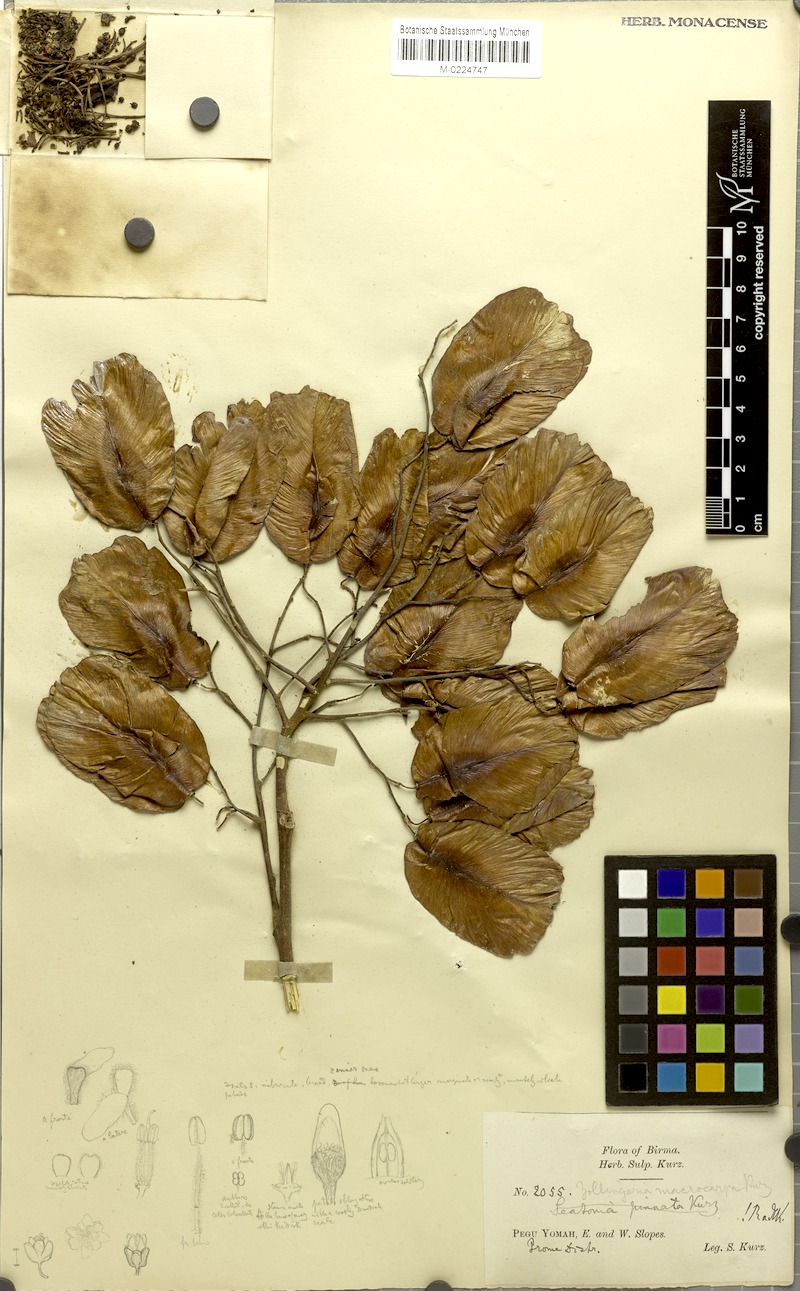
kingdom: Plantae
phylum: Tracheophyta
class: Magnoliopsida
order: Sapindales
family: Sapindaceae
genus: Zollingeria
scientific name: Zollingeria macrocarpa
